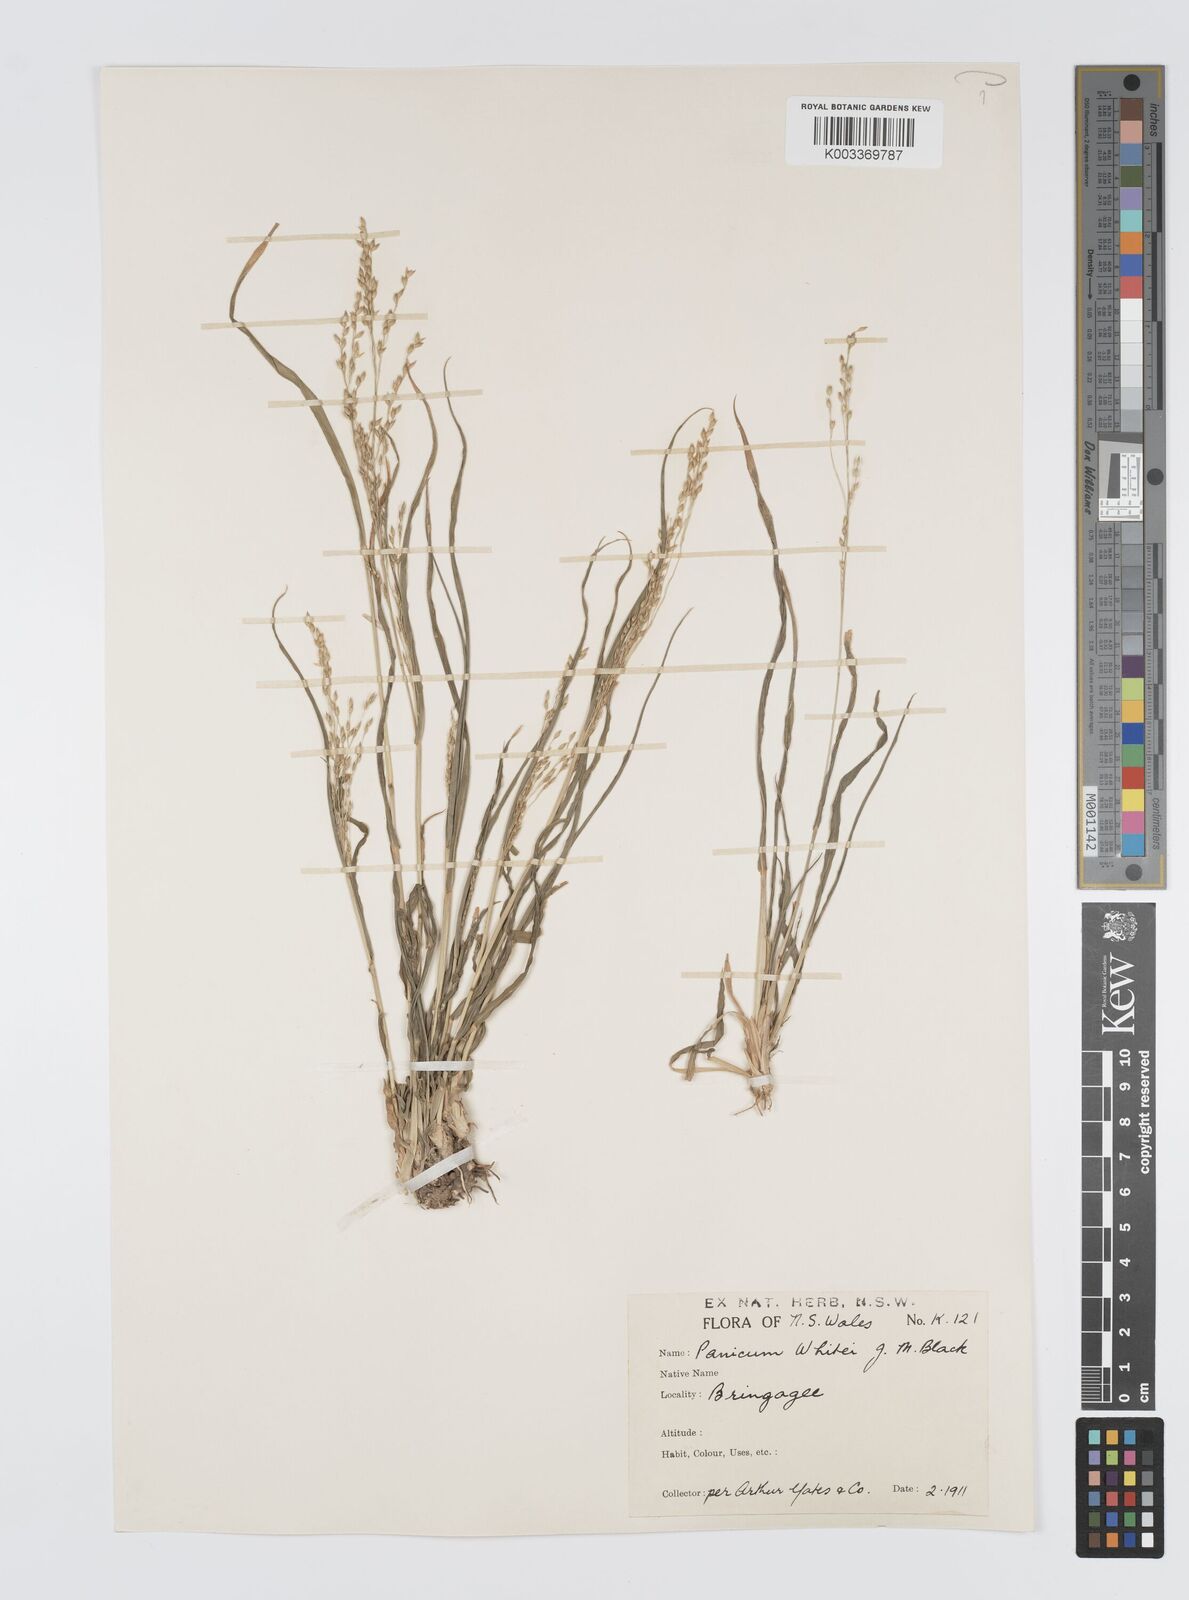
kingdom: Plantae
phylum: Tracheophyta
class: Liliopsida
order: Poales
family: Poaceae
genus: Panicum
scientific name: Panicum laevinode
